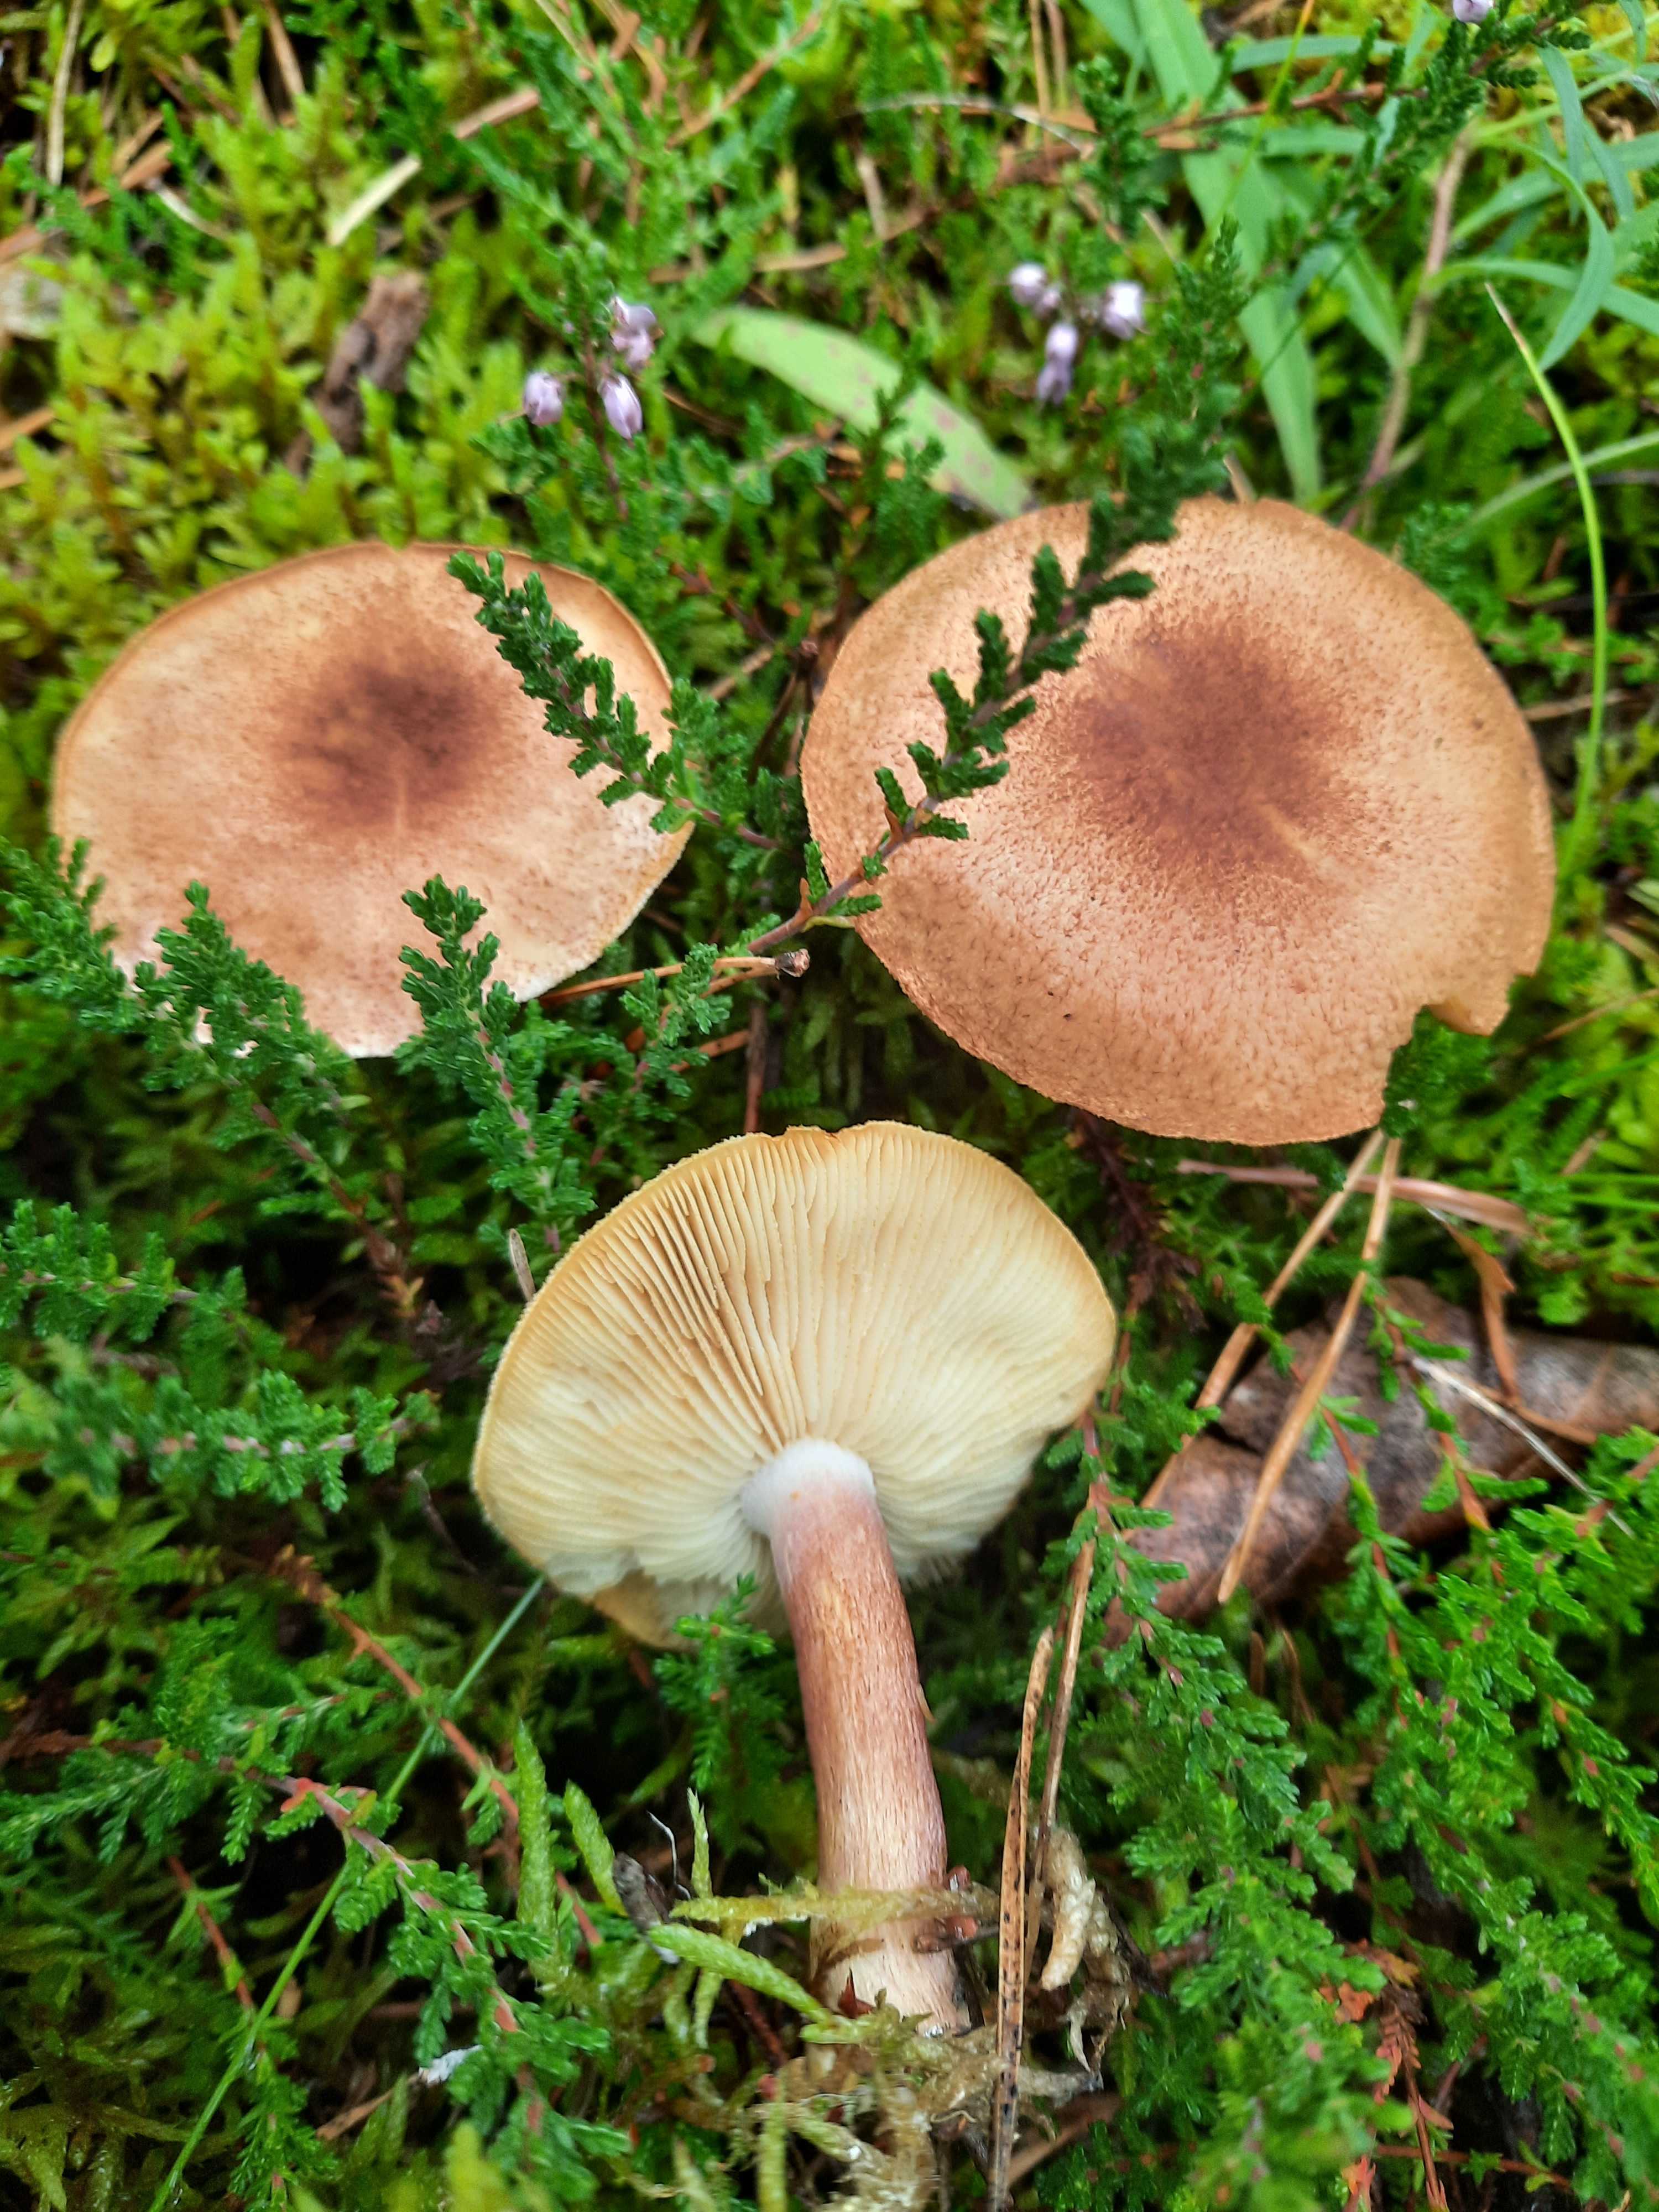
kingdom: Fungi
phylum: Basidiomycota
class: Agaricomycetes
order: Agaricales
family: Tricholomataceae
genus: Tricholomopsis
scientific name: Tricholomopsis rutilans
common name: purpur-væbnerhat
